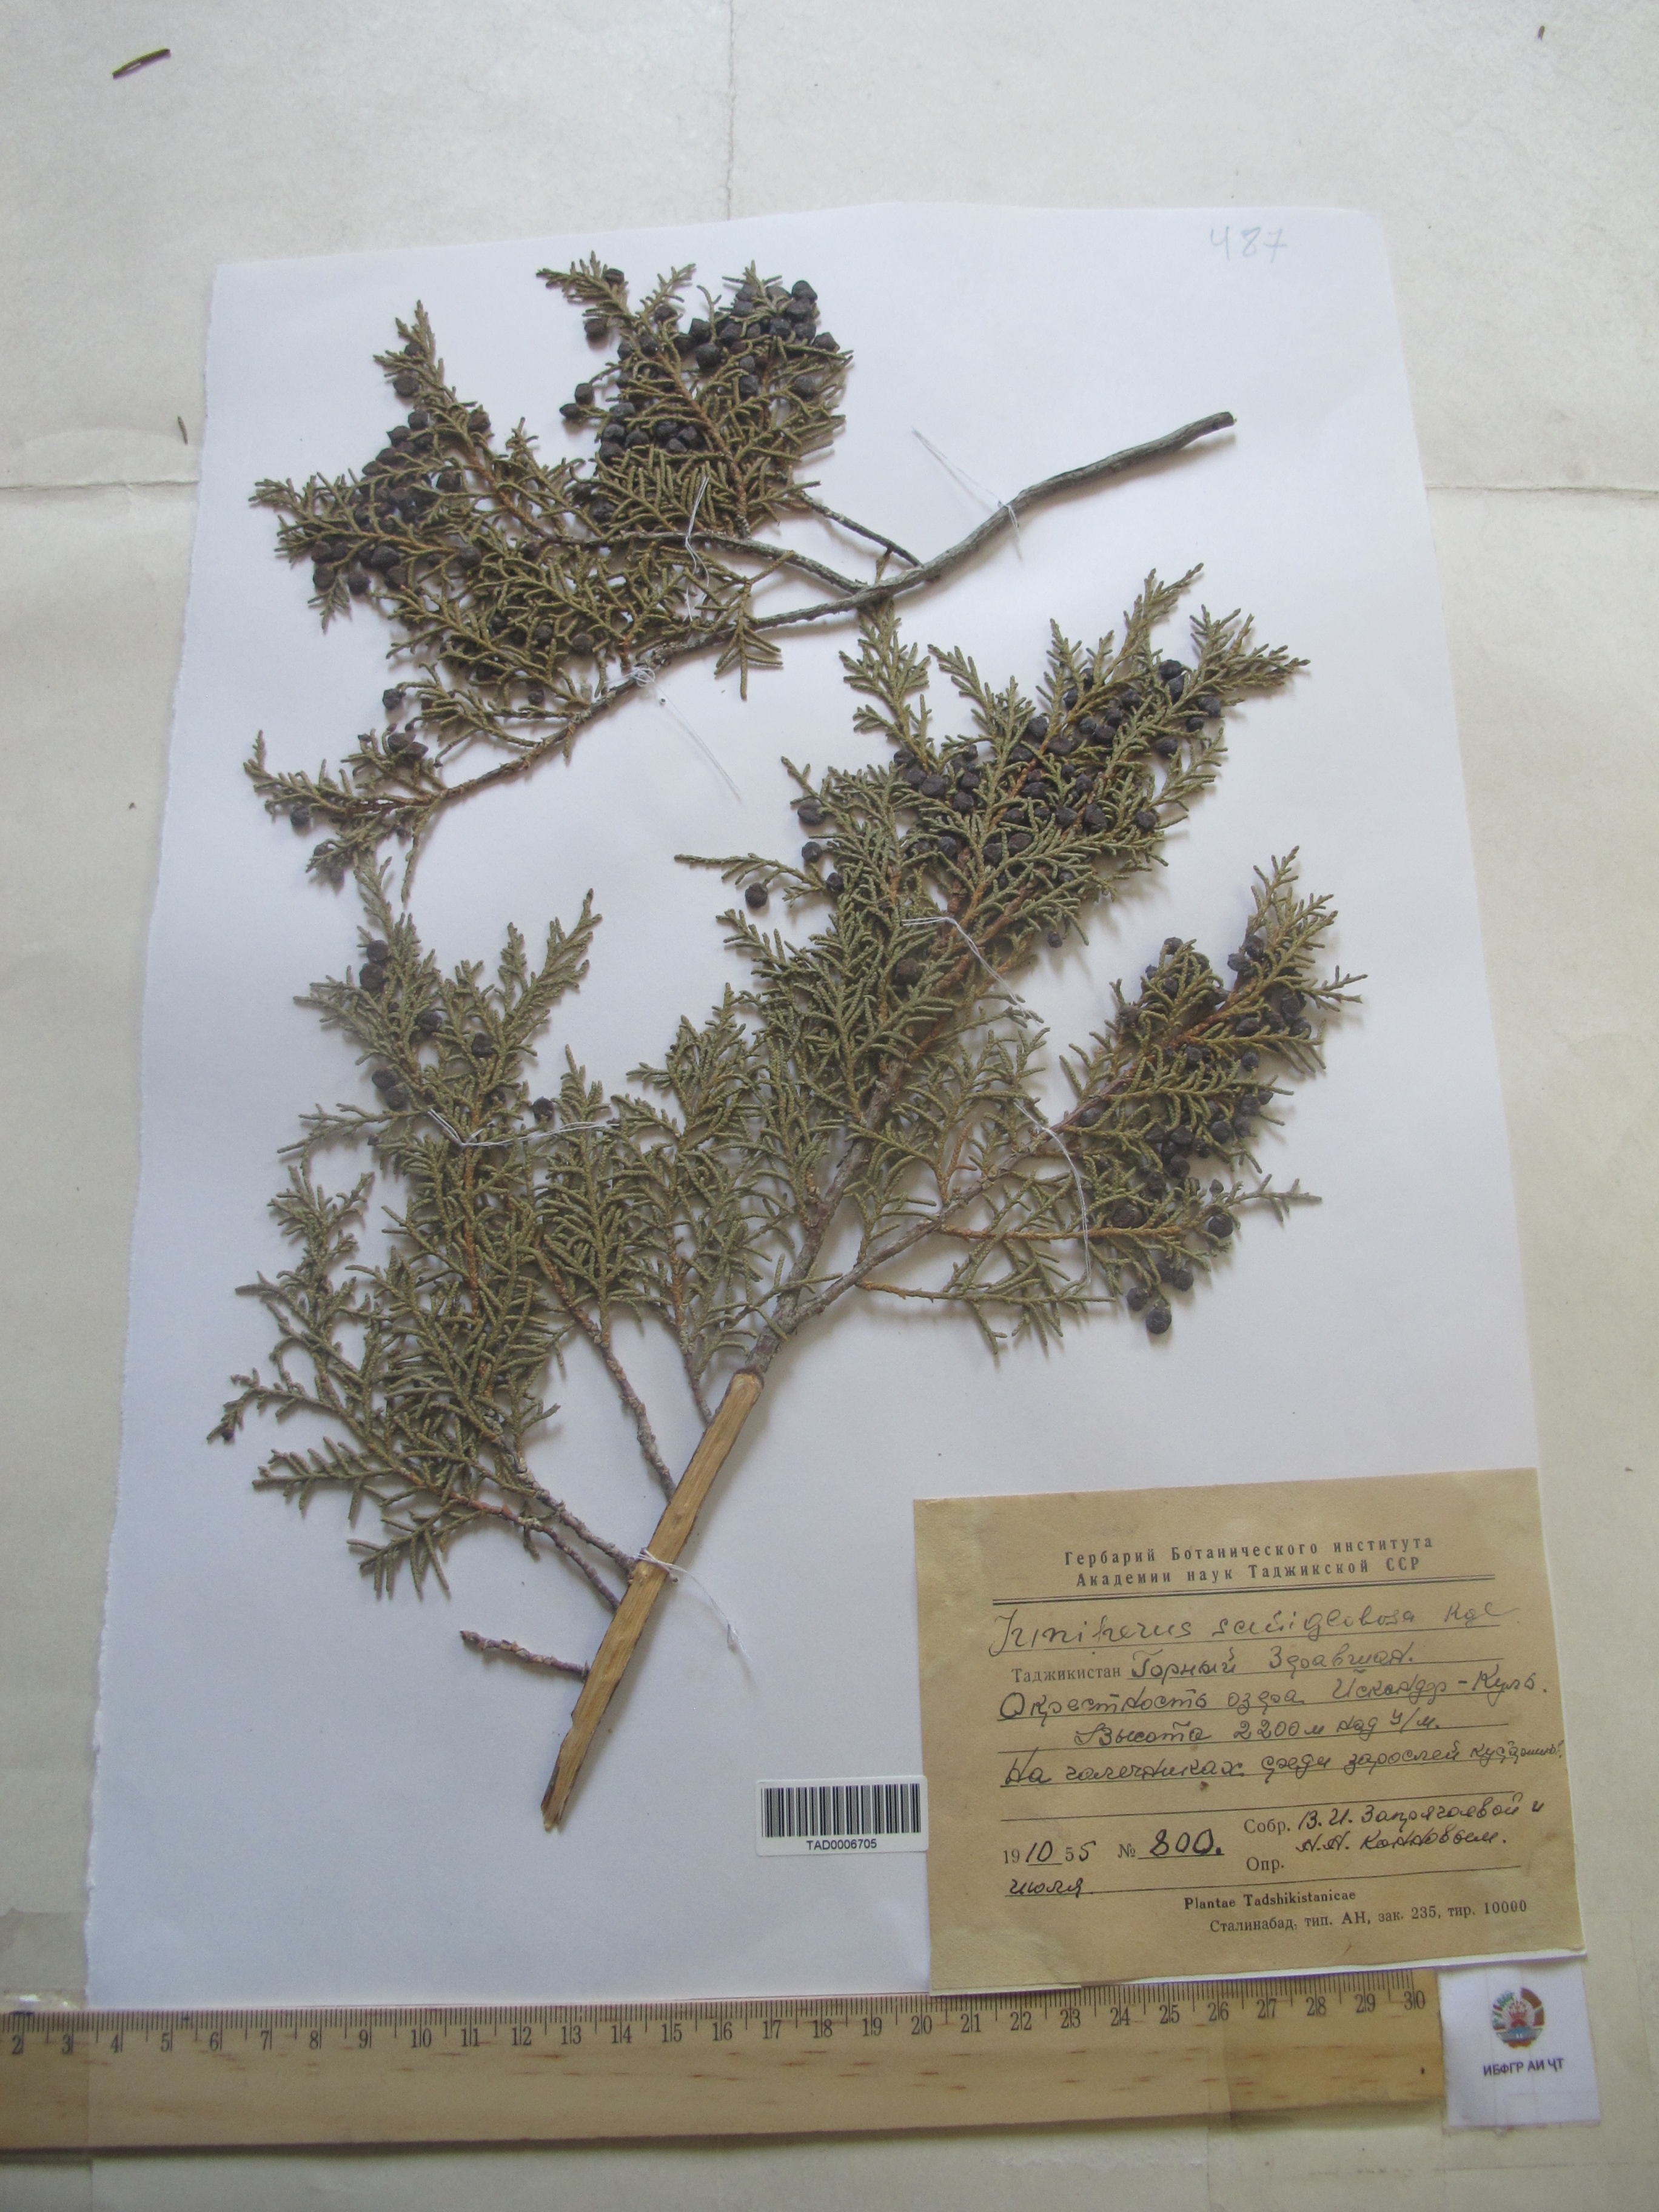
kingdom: Plantae
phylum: Tracheophyta
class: Pinopsida
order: Pinales
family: Cupressaceae
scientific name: Cupressaceae
